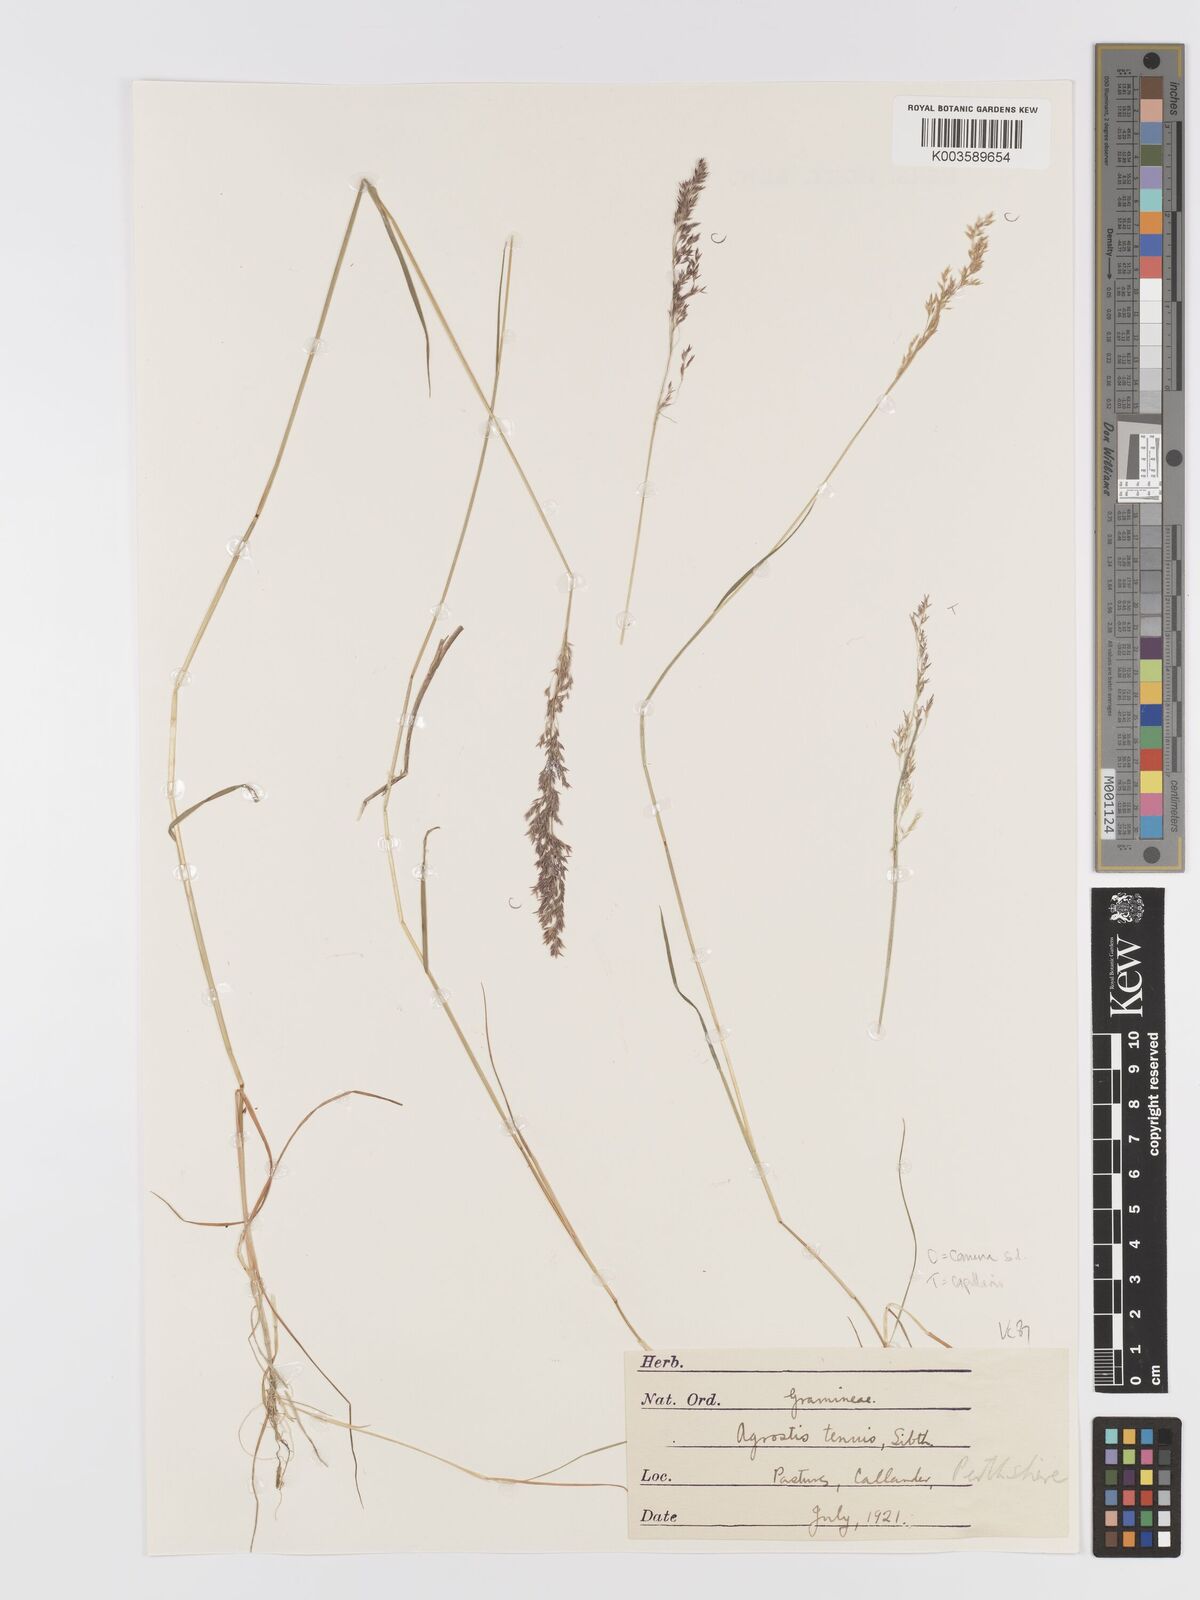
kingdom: Plantae
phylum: Tracheophyta
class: Liliopsida
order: Poales
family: Poaceae
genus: Agrostis
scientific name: Agrostis
